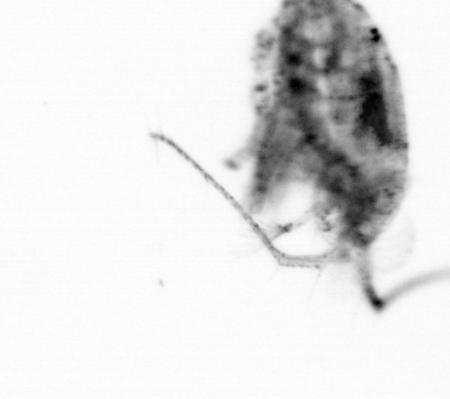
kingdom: Animalia
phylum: Arthropoda
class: Copepoda
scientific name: Copepoda
